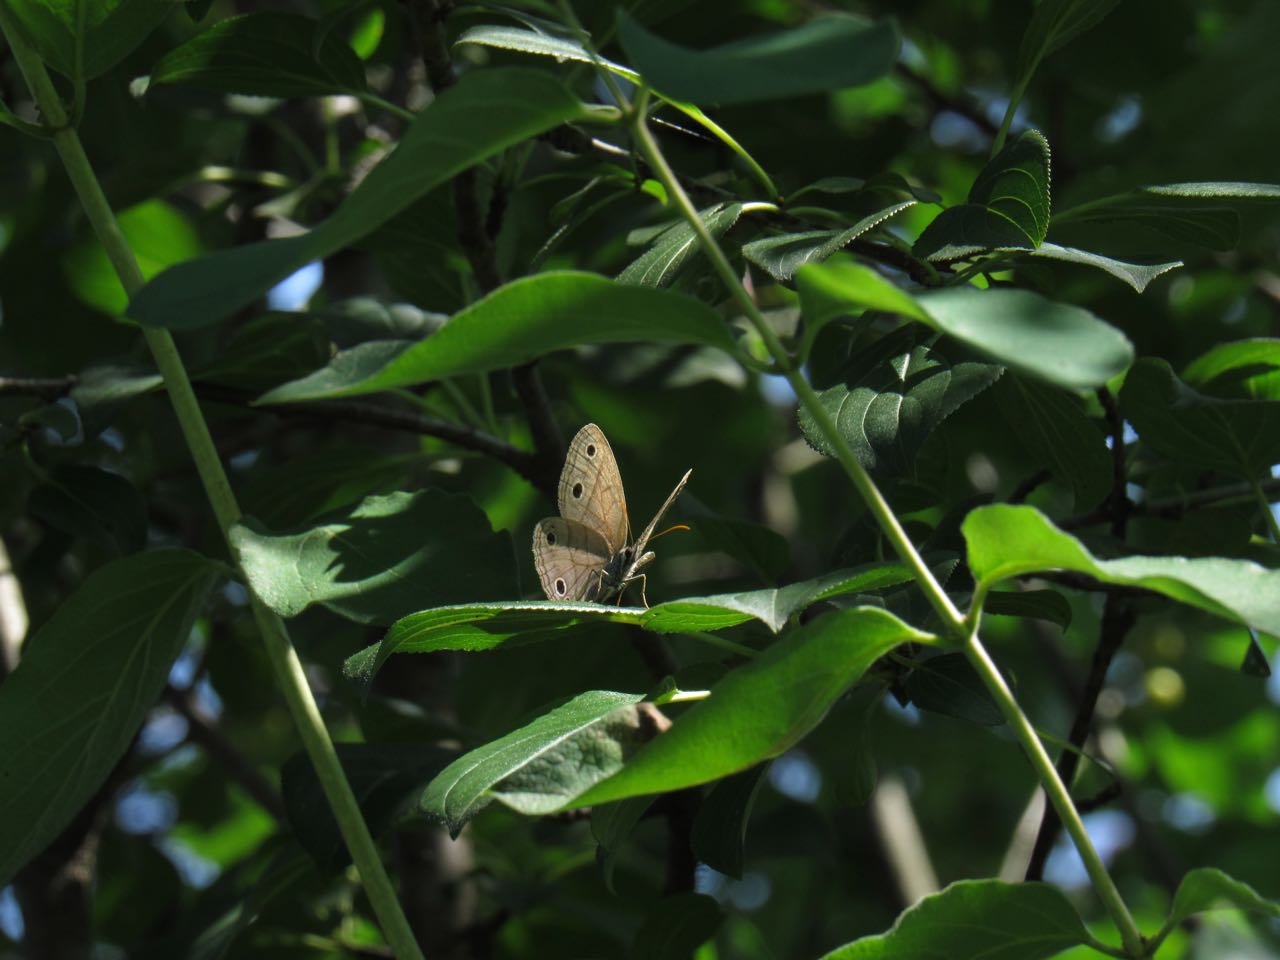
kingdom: Animalia
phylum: Arthropoda
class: Insecta
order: Lepidoptera
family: Nymphalidae
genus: Euptychia
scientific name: Euptychia cymela
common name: Little Wood Satyr
